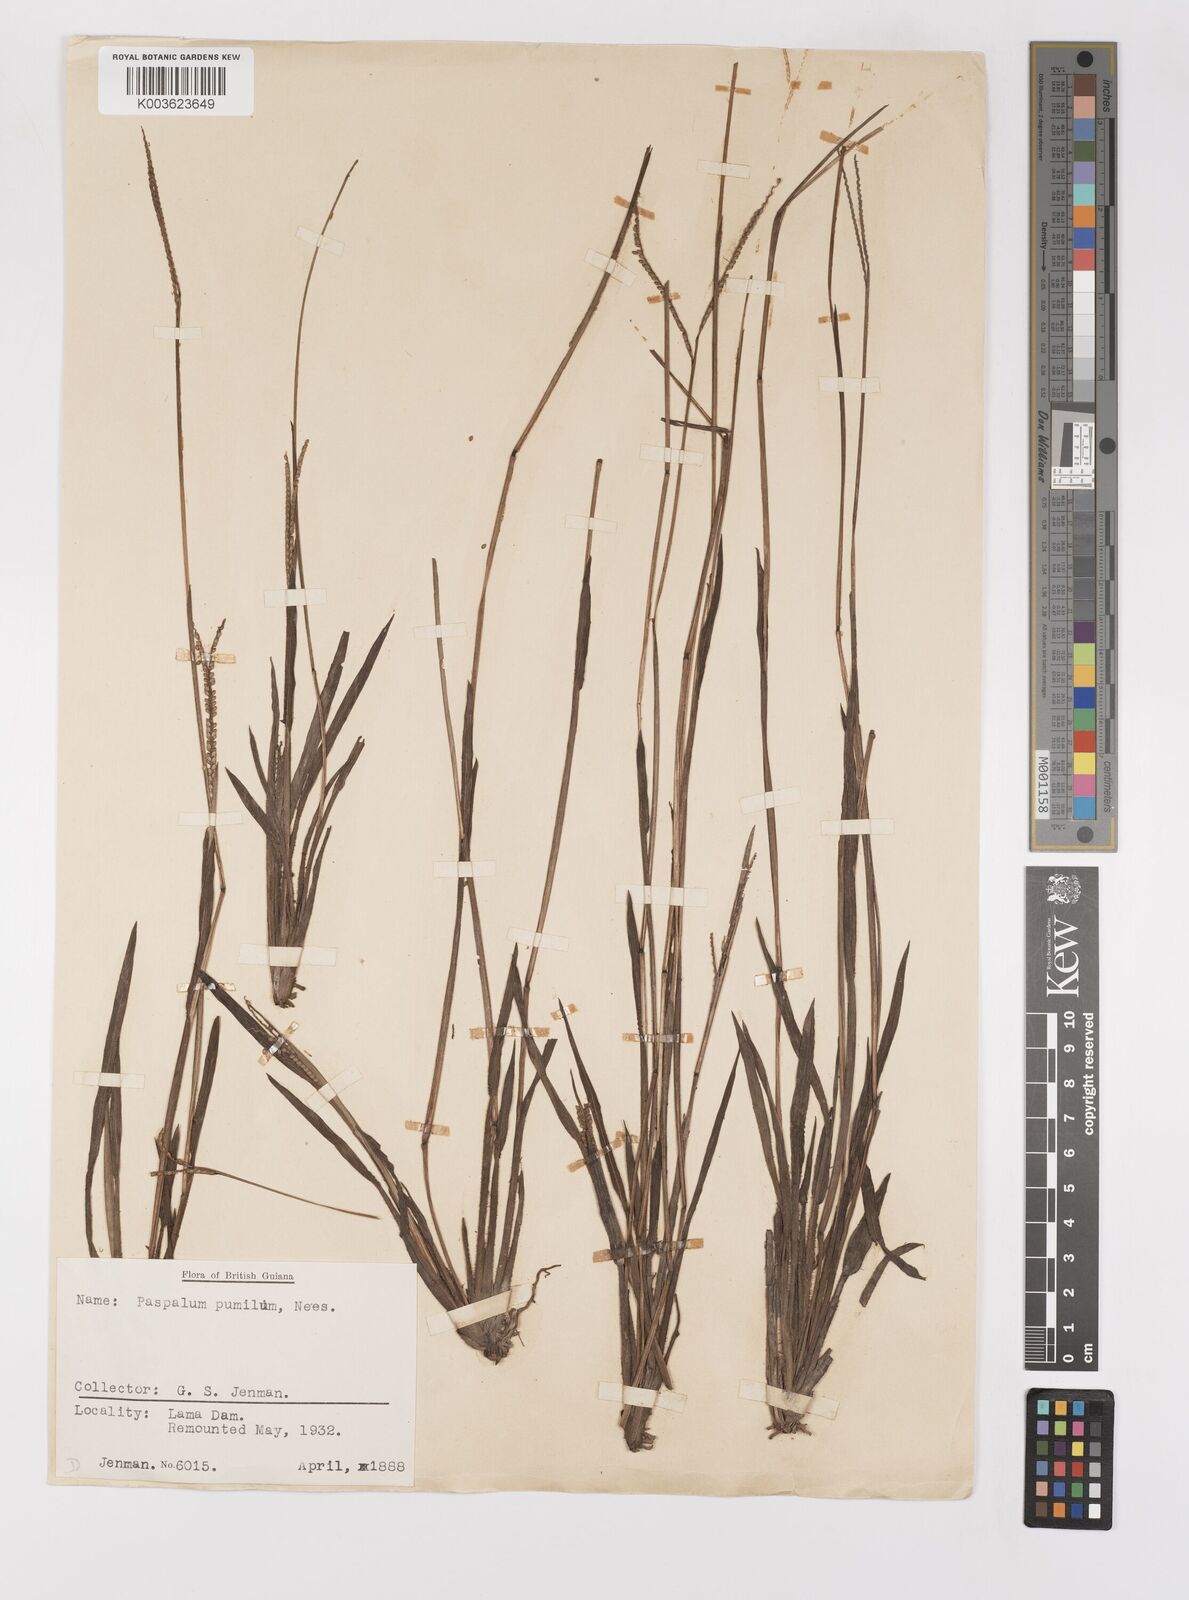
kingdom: Plantae
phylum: Tracheophyta
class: Liliopsida
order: Poales
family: Poaceae
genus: Paspalum
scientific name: Paspalum pumilum
